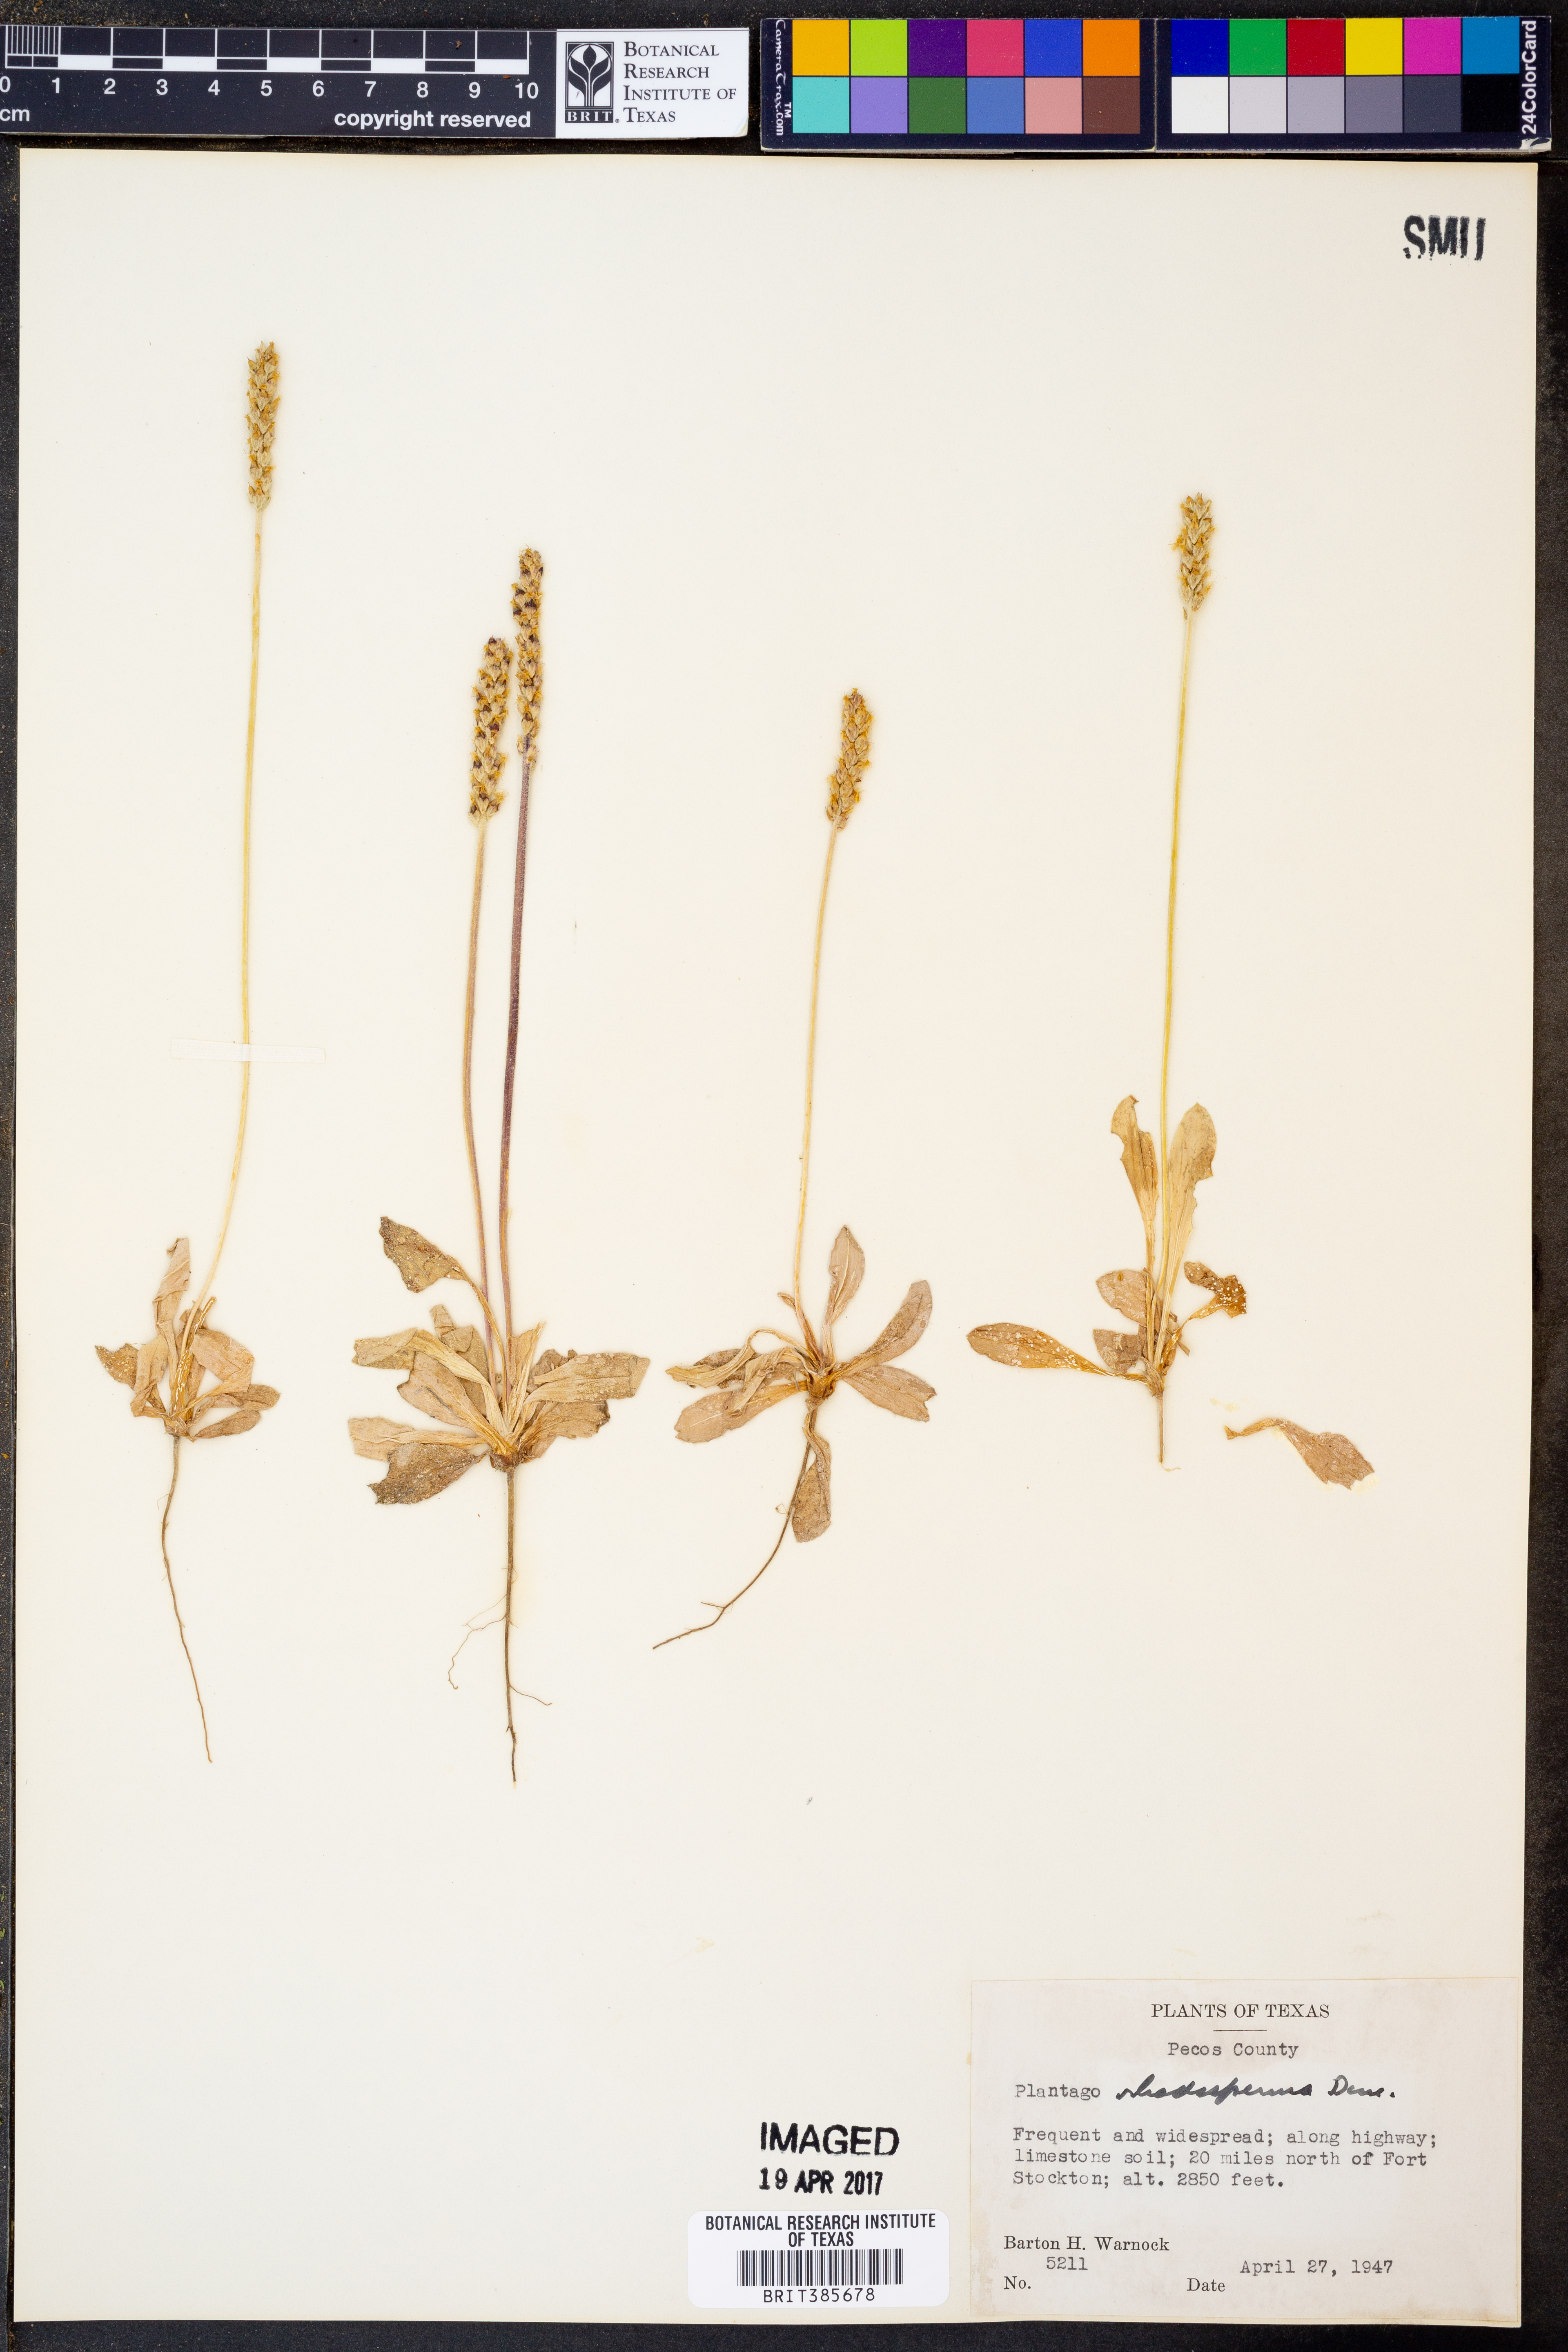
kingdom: Plantae
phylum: Tracheophyta
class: Magnoliopsida
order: Lamiales
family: Plantaginaceae
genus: Plantago
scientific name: Plantago rhodosperma
